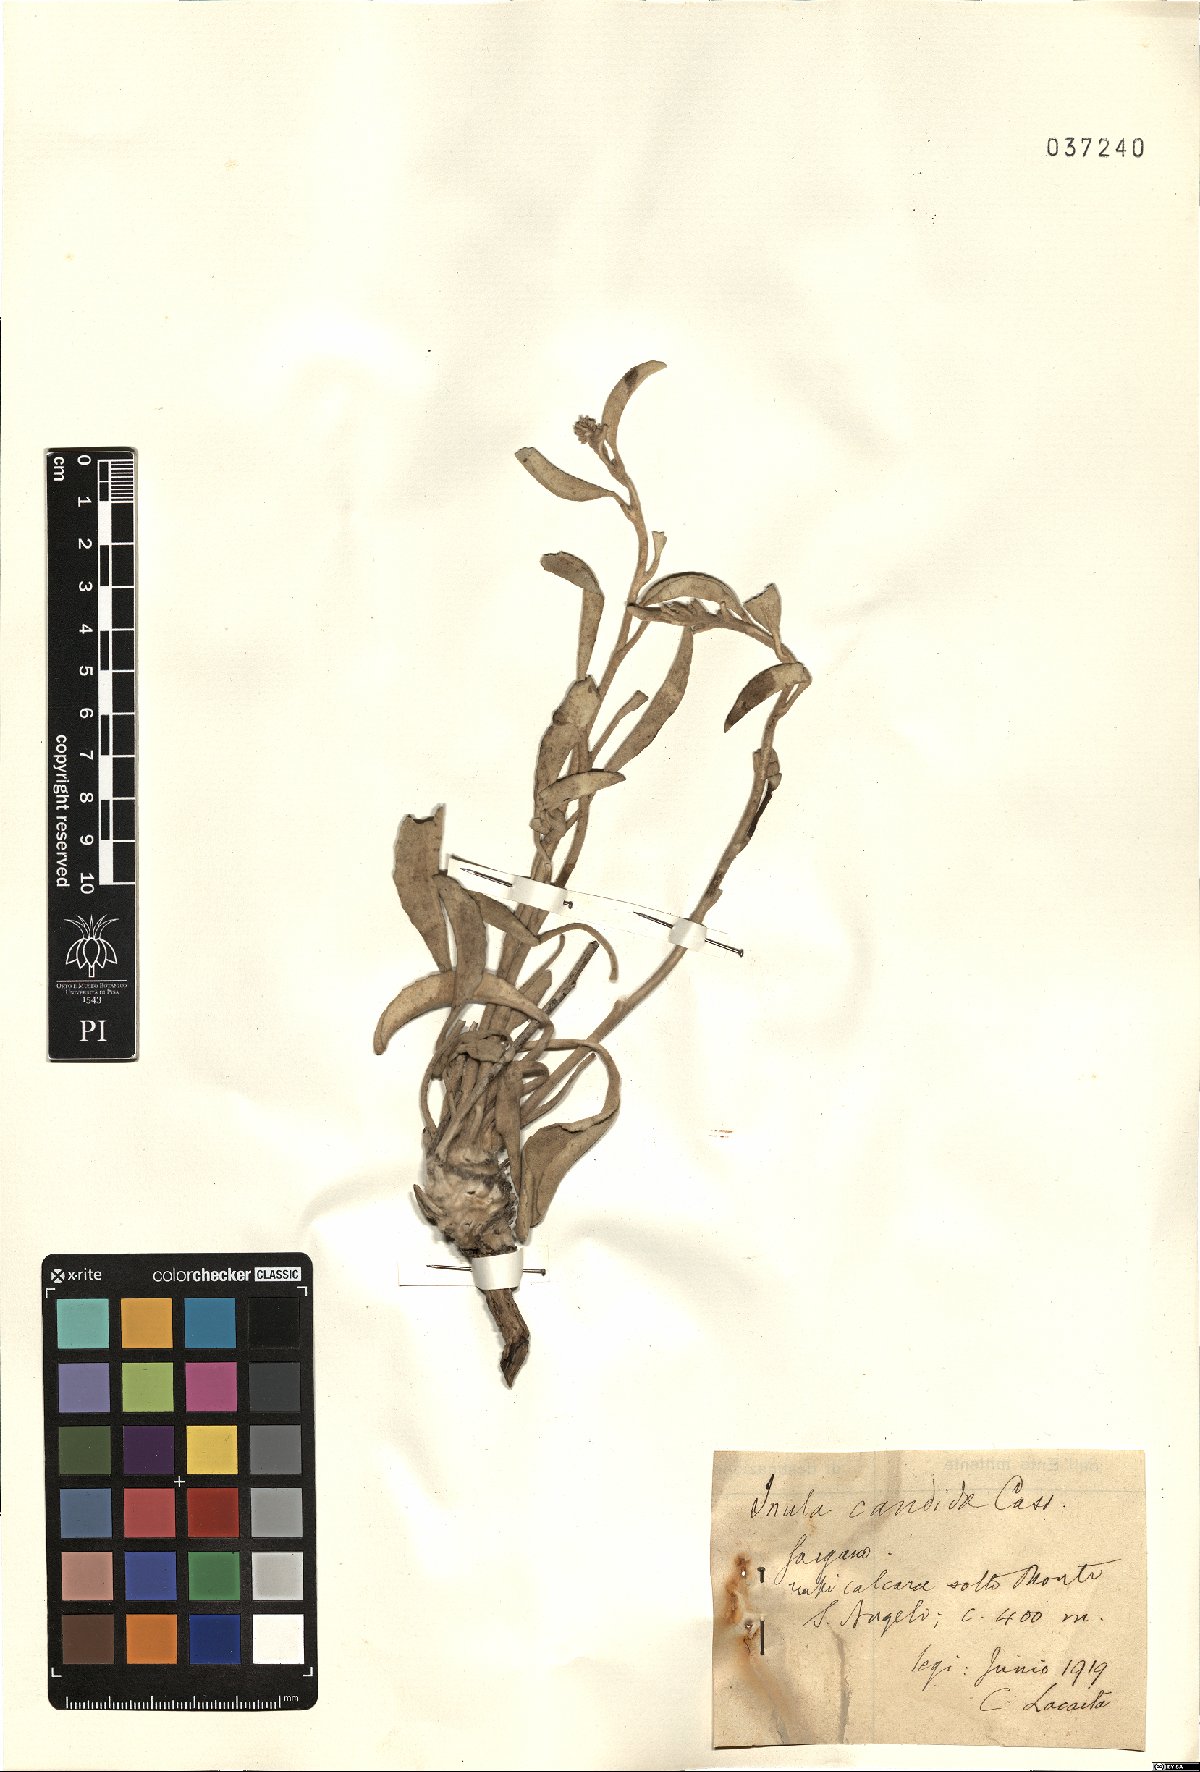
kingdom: Plantae
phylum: Tracheophyta
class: Magnoliopsida
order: Asterales
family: Asteraceae
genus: Inula
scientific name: Inula candida
